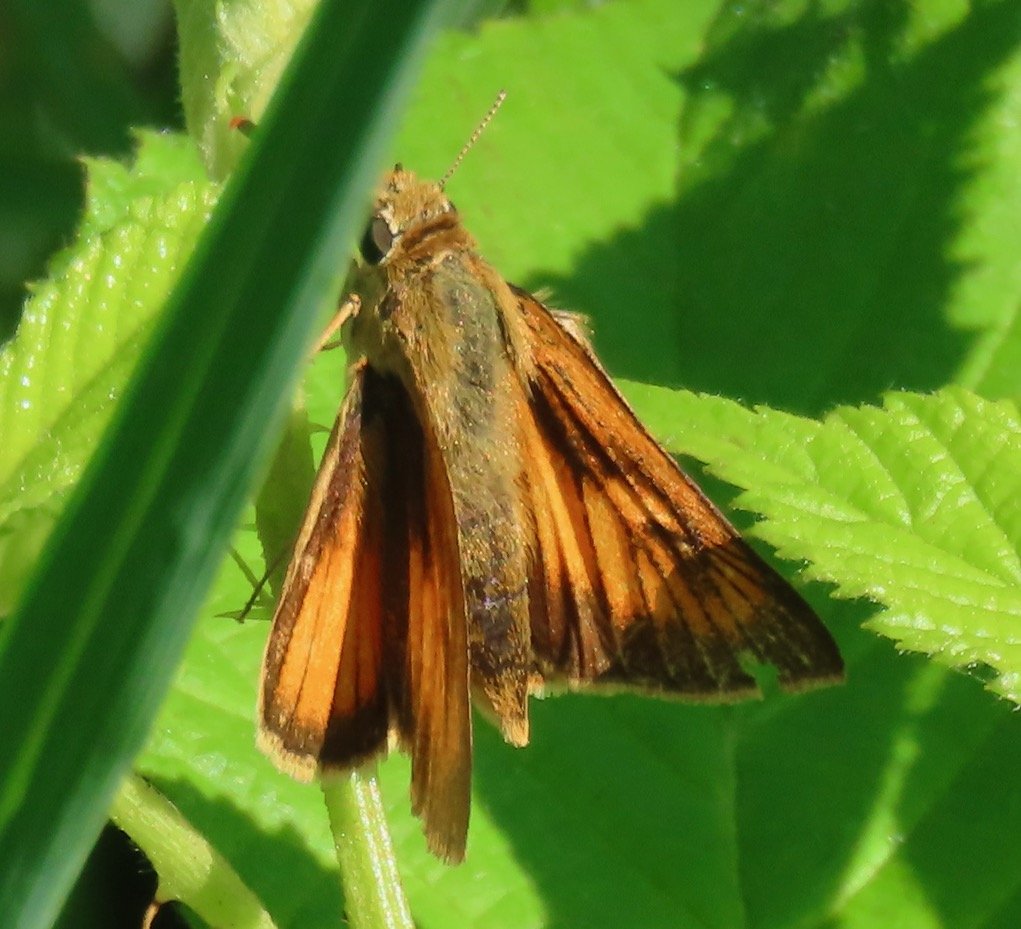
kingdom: Animalia
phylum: Arthropoda
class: Insecta
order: Lepidoptera
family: Hesperiidae
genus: Atrytone
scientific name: Atrytone delaware
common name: Delaware Skipper
